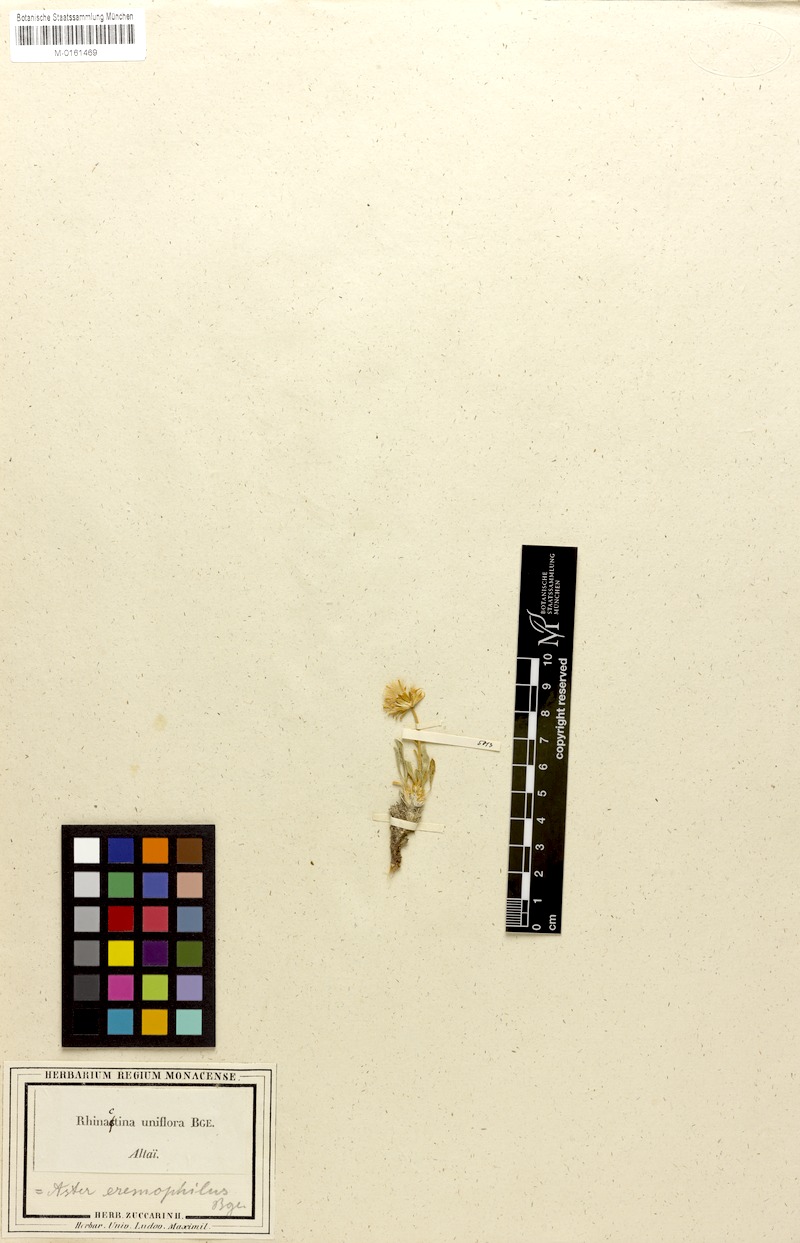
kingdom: Plantae
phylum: Tracheophyta
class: Magnoliopsida
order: Asterales
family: Asteraceae
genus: Rhinactinidia
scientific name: Rhinactinidia limoniifolia
